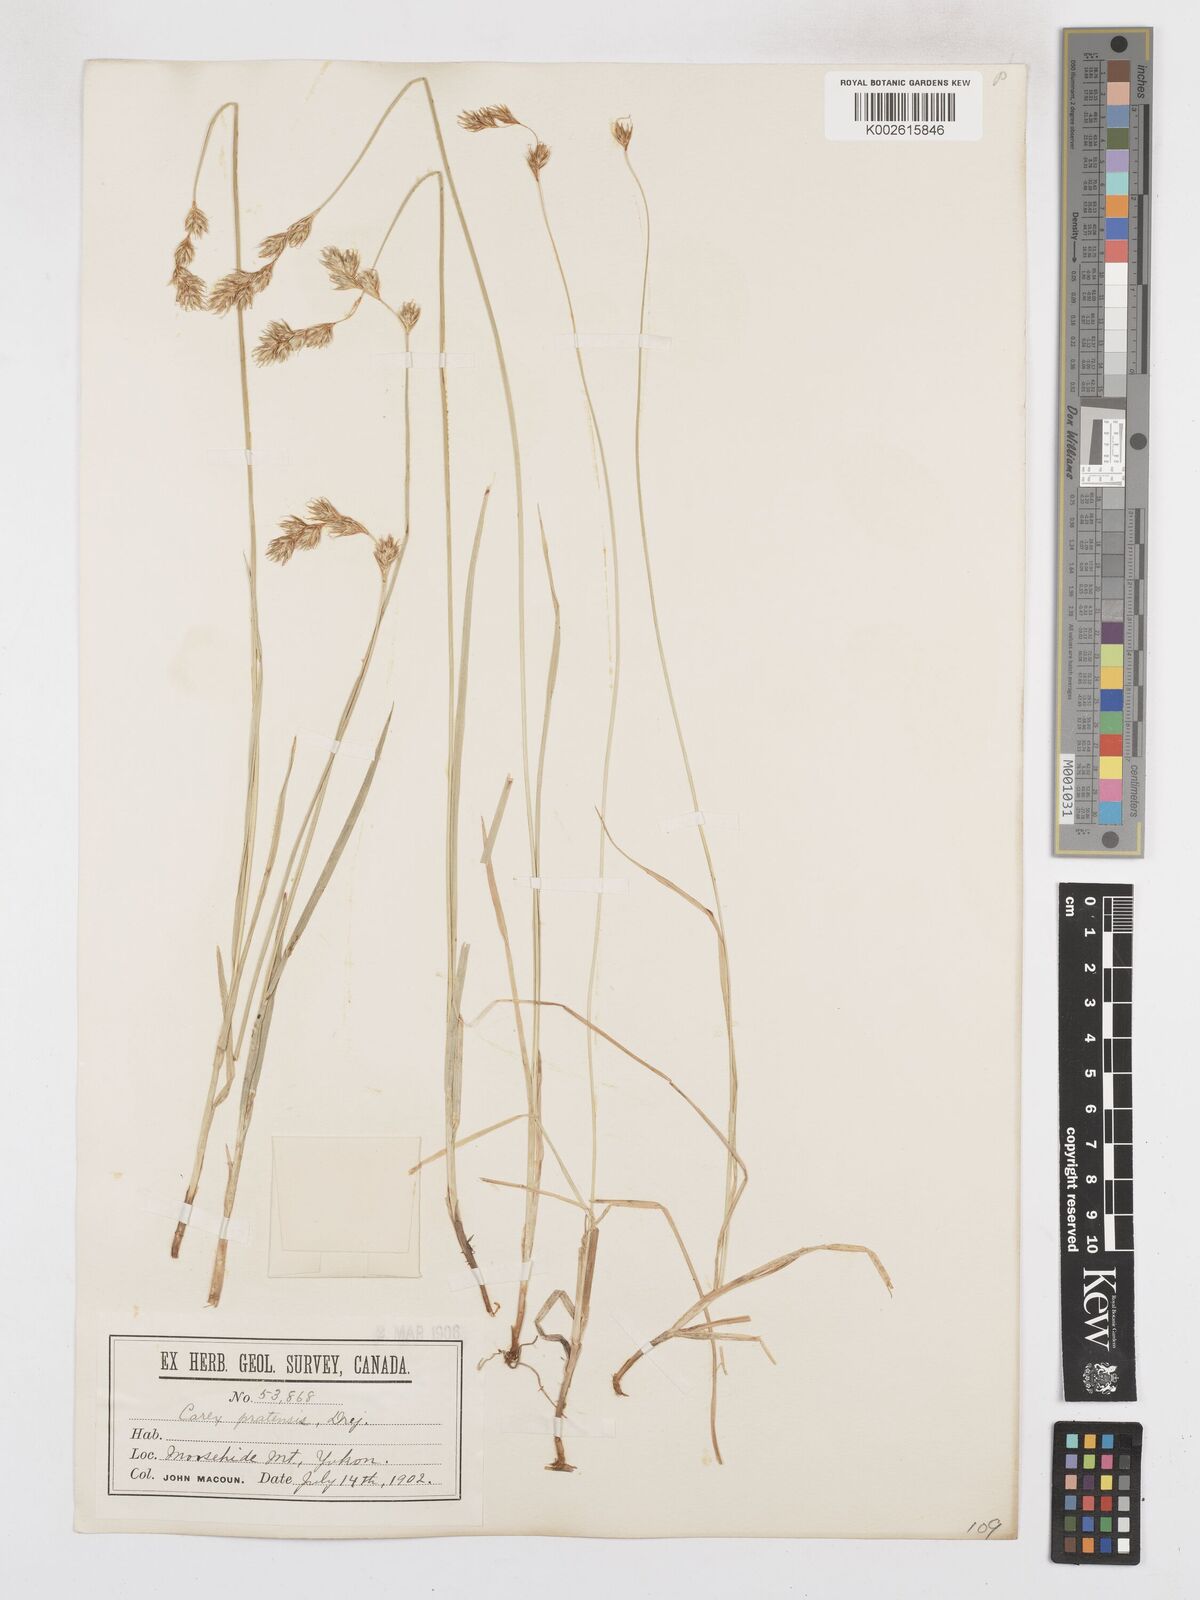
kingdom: Plantae
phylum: Tracheophyta
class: Liliopsida
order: Poales
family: Cyperaceae
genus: Carex
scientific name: Carex specifica
